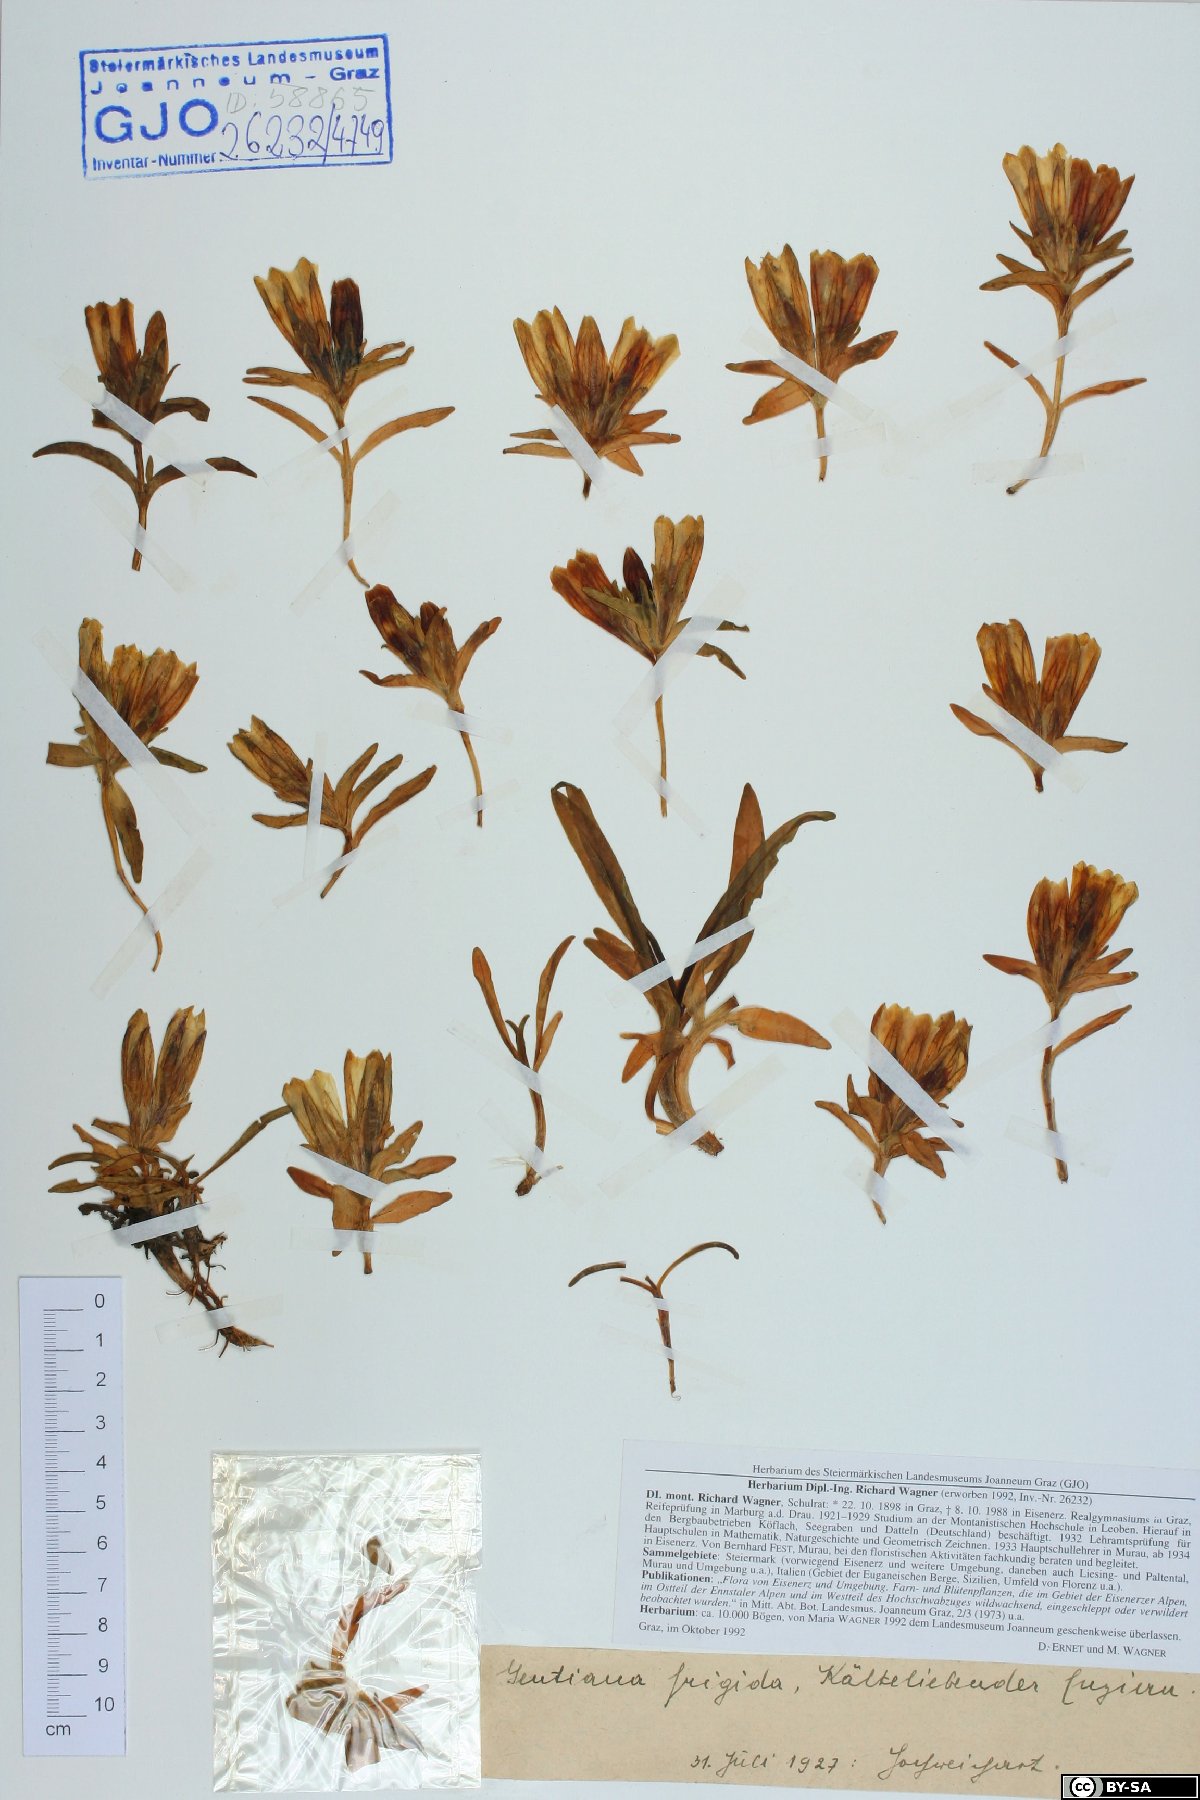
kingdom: Plantae
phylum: Tracheophyta
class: Magnoliopsida
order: Gentianales
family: Gentianaceae
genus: Gentiana
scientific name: Gentiana frigida
